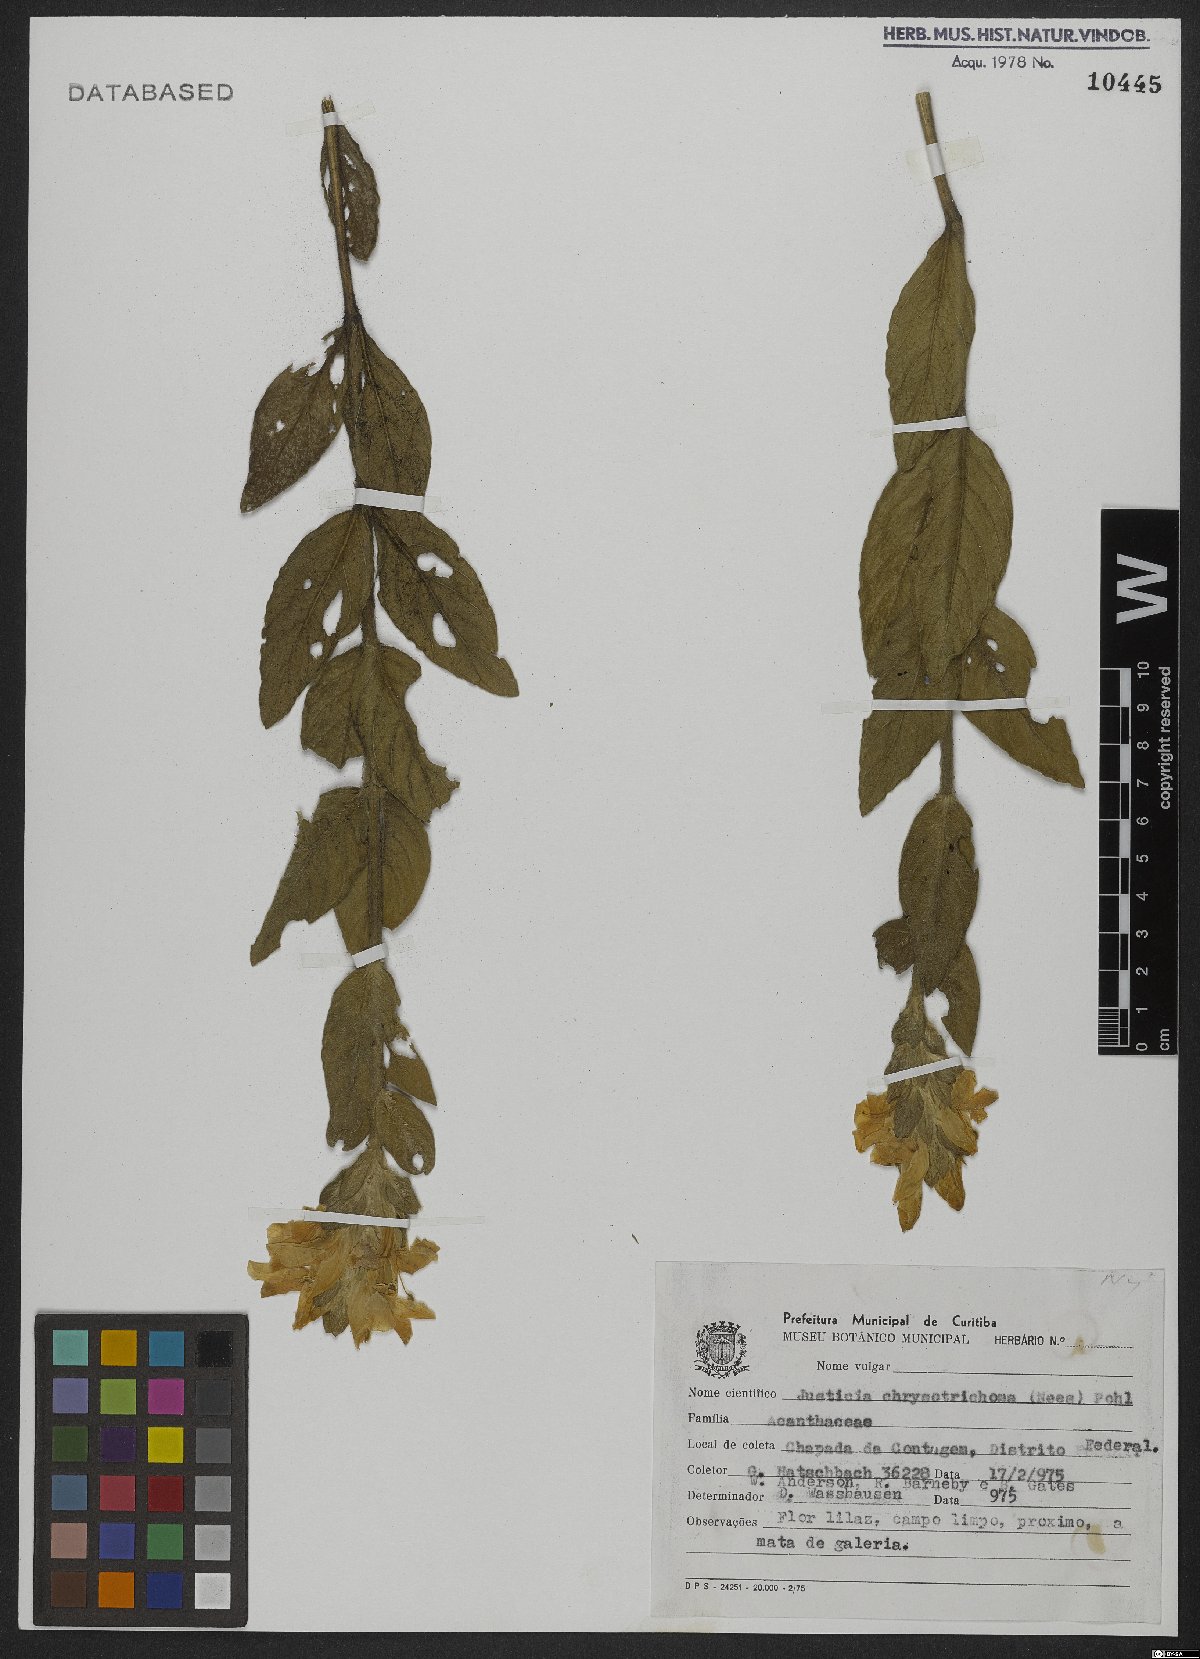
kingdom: Plantae
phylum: Tracheophyta
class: Magnoliopsida
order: Lamiales
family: Acanthaceae
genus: Justicia
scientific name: Justicia chrysotrichoma
